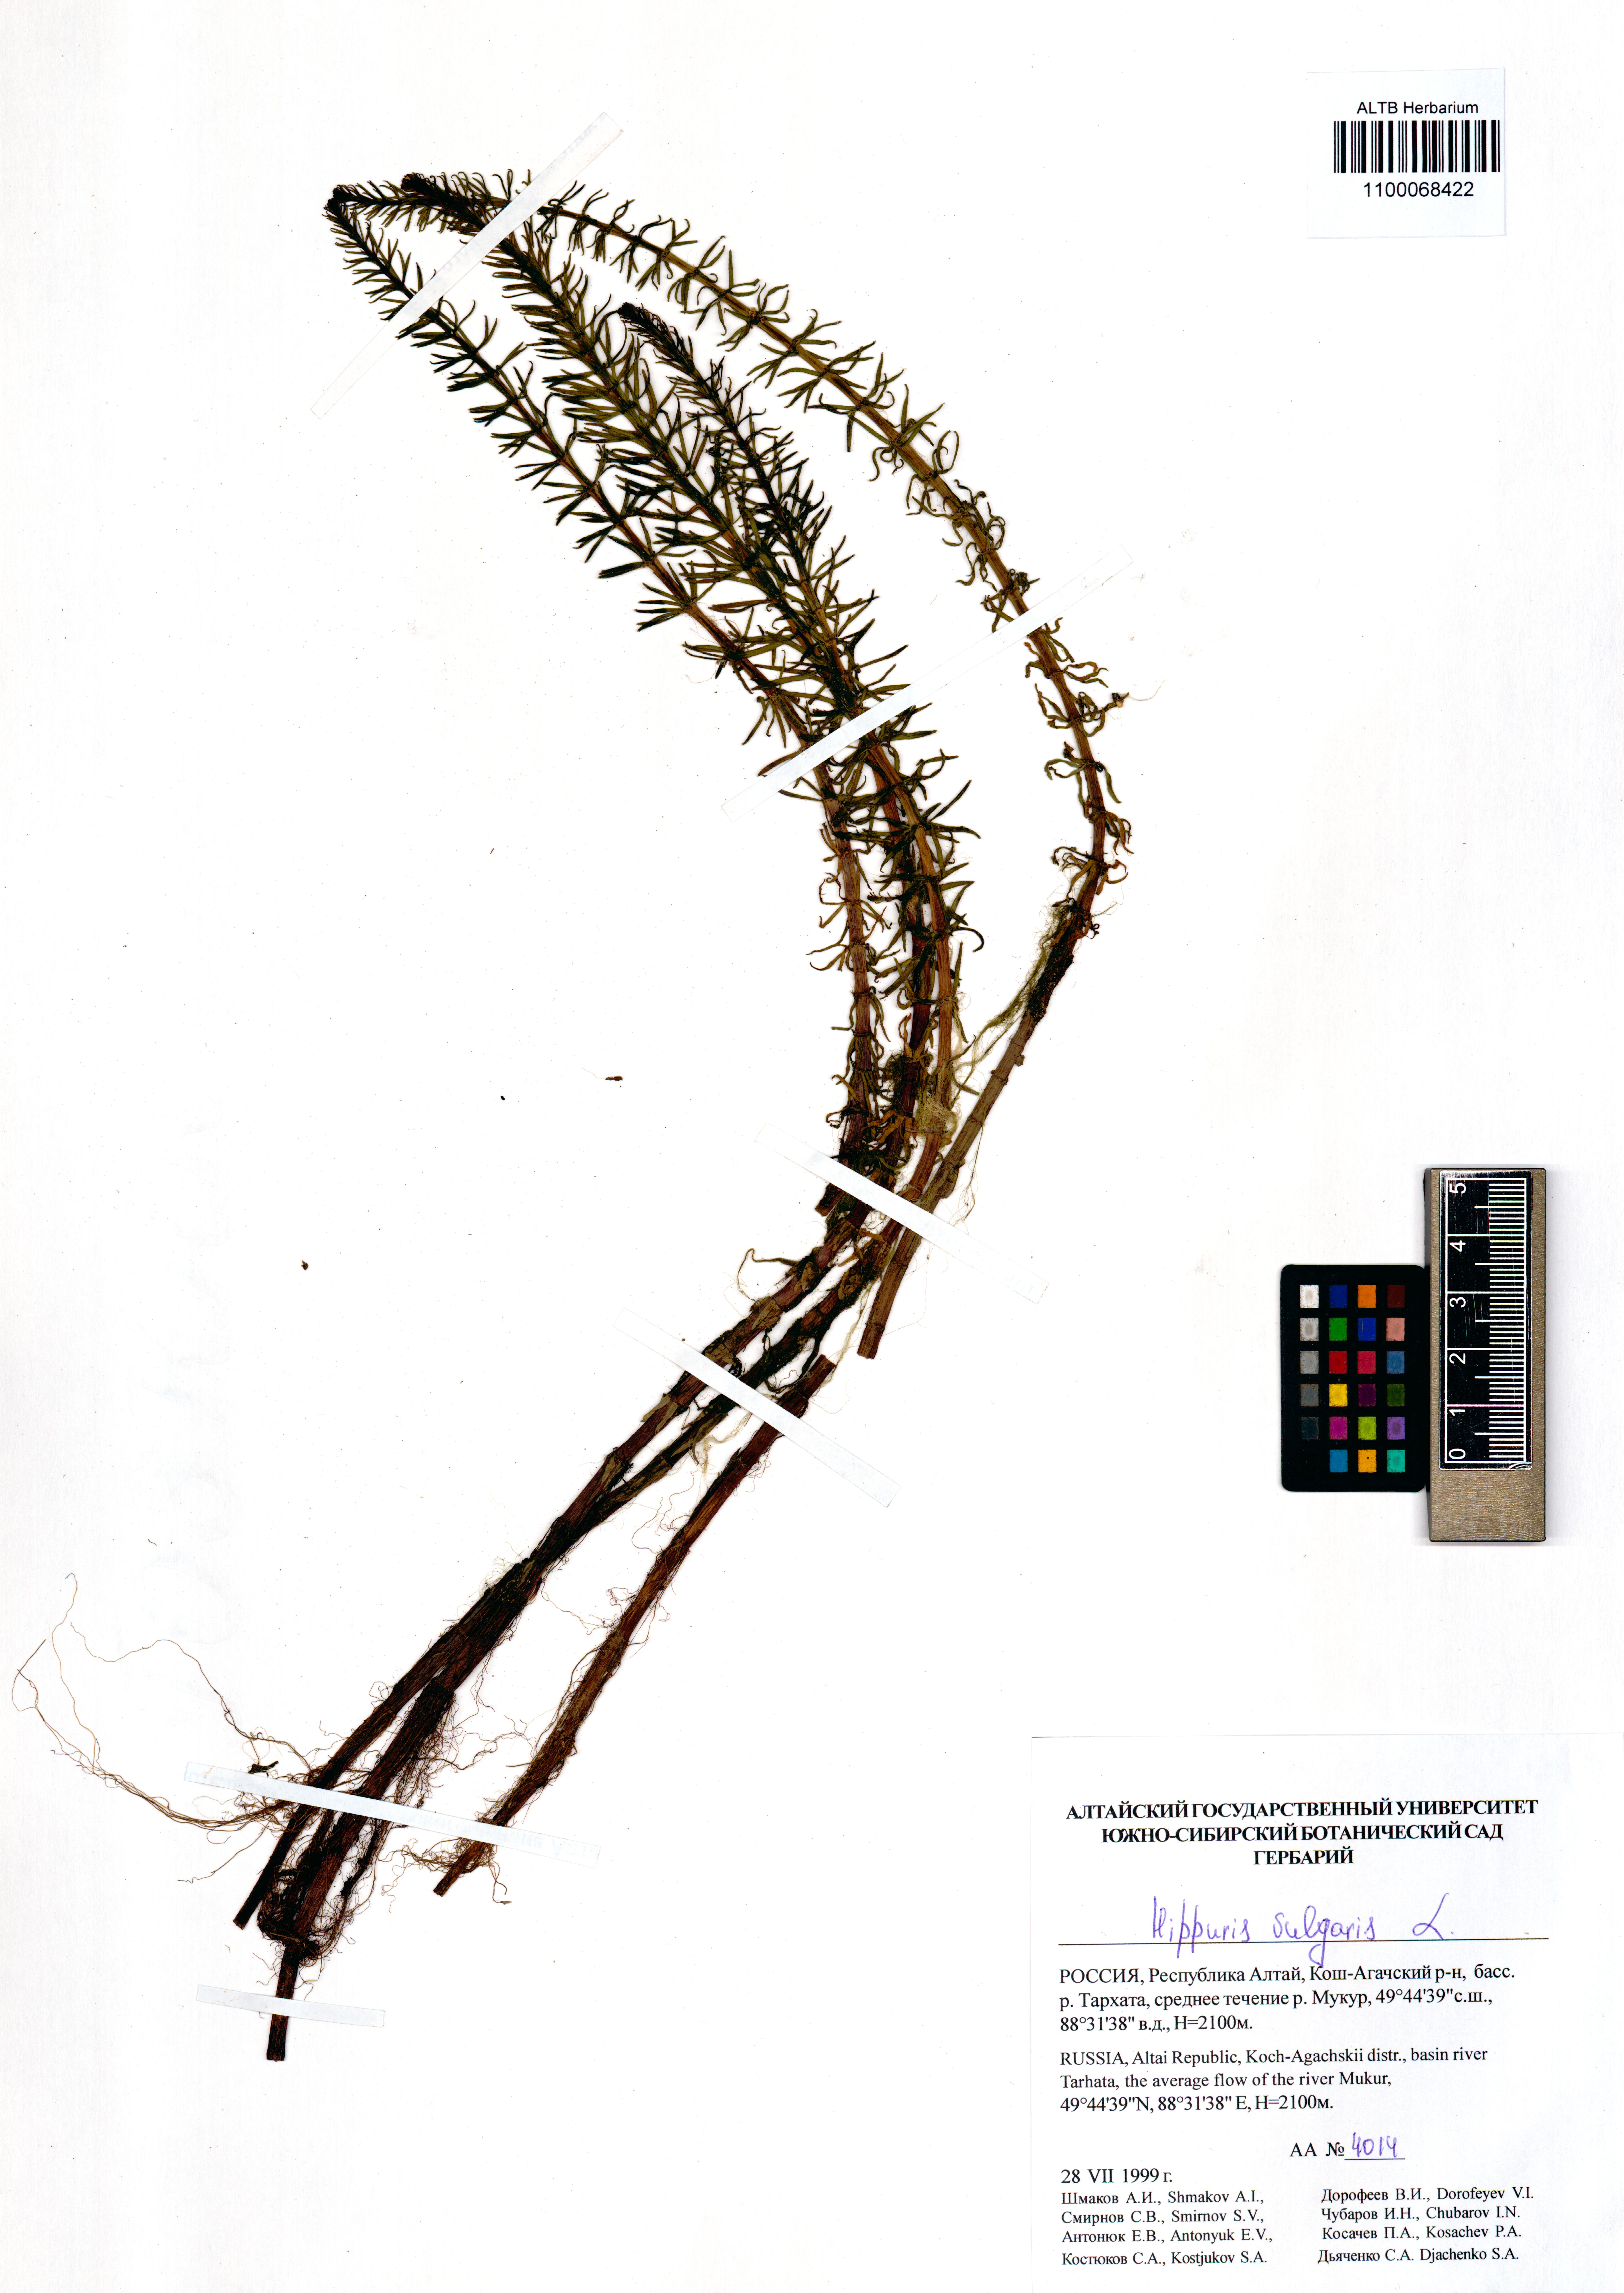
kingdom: Plantae
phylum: Tracheophyta
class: Magnoliopsida
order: Lamiales
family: Plantaginaceae
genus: Hippuris
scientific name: Hippuris vulgaris
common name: Mare's-tail
